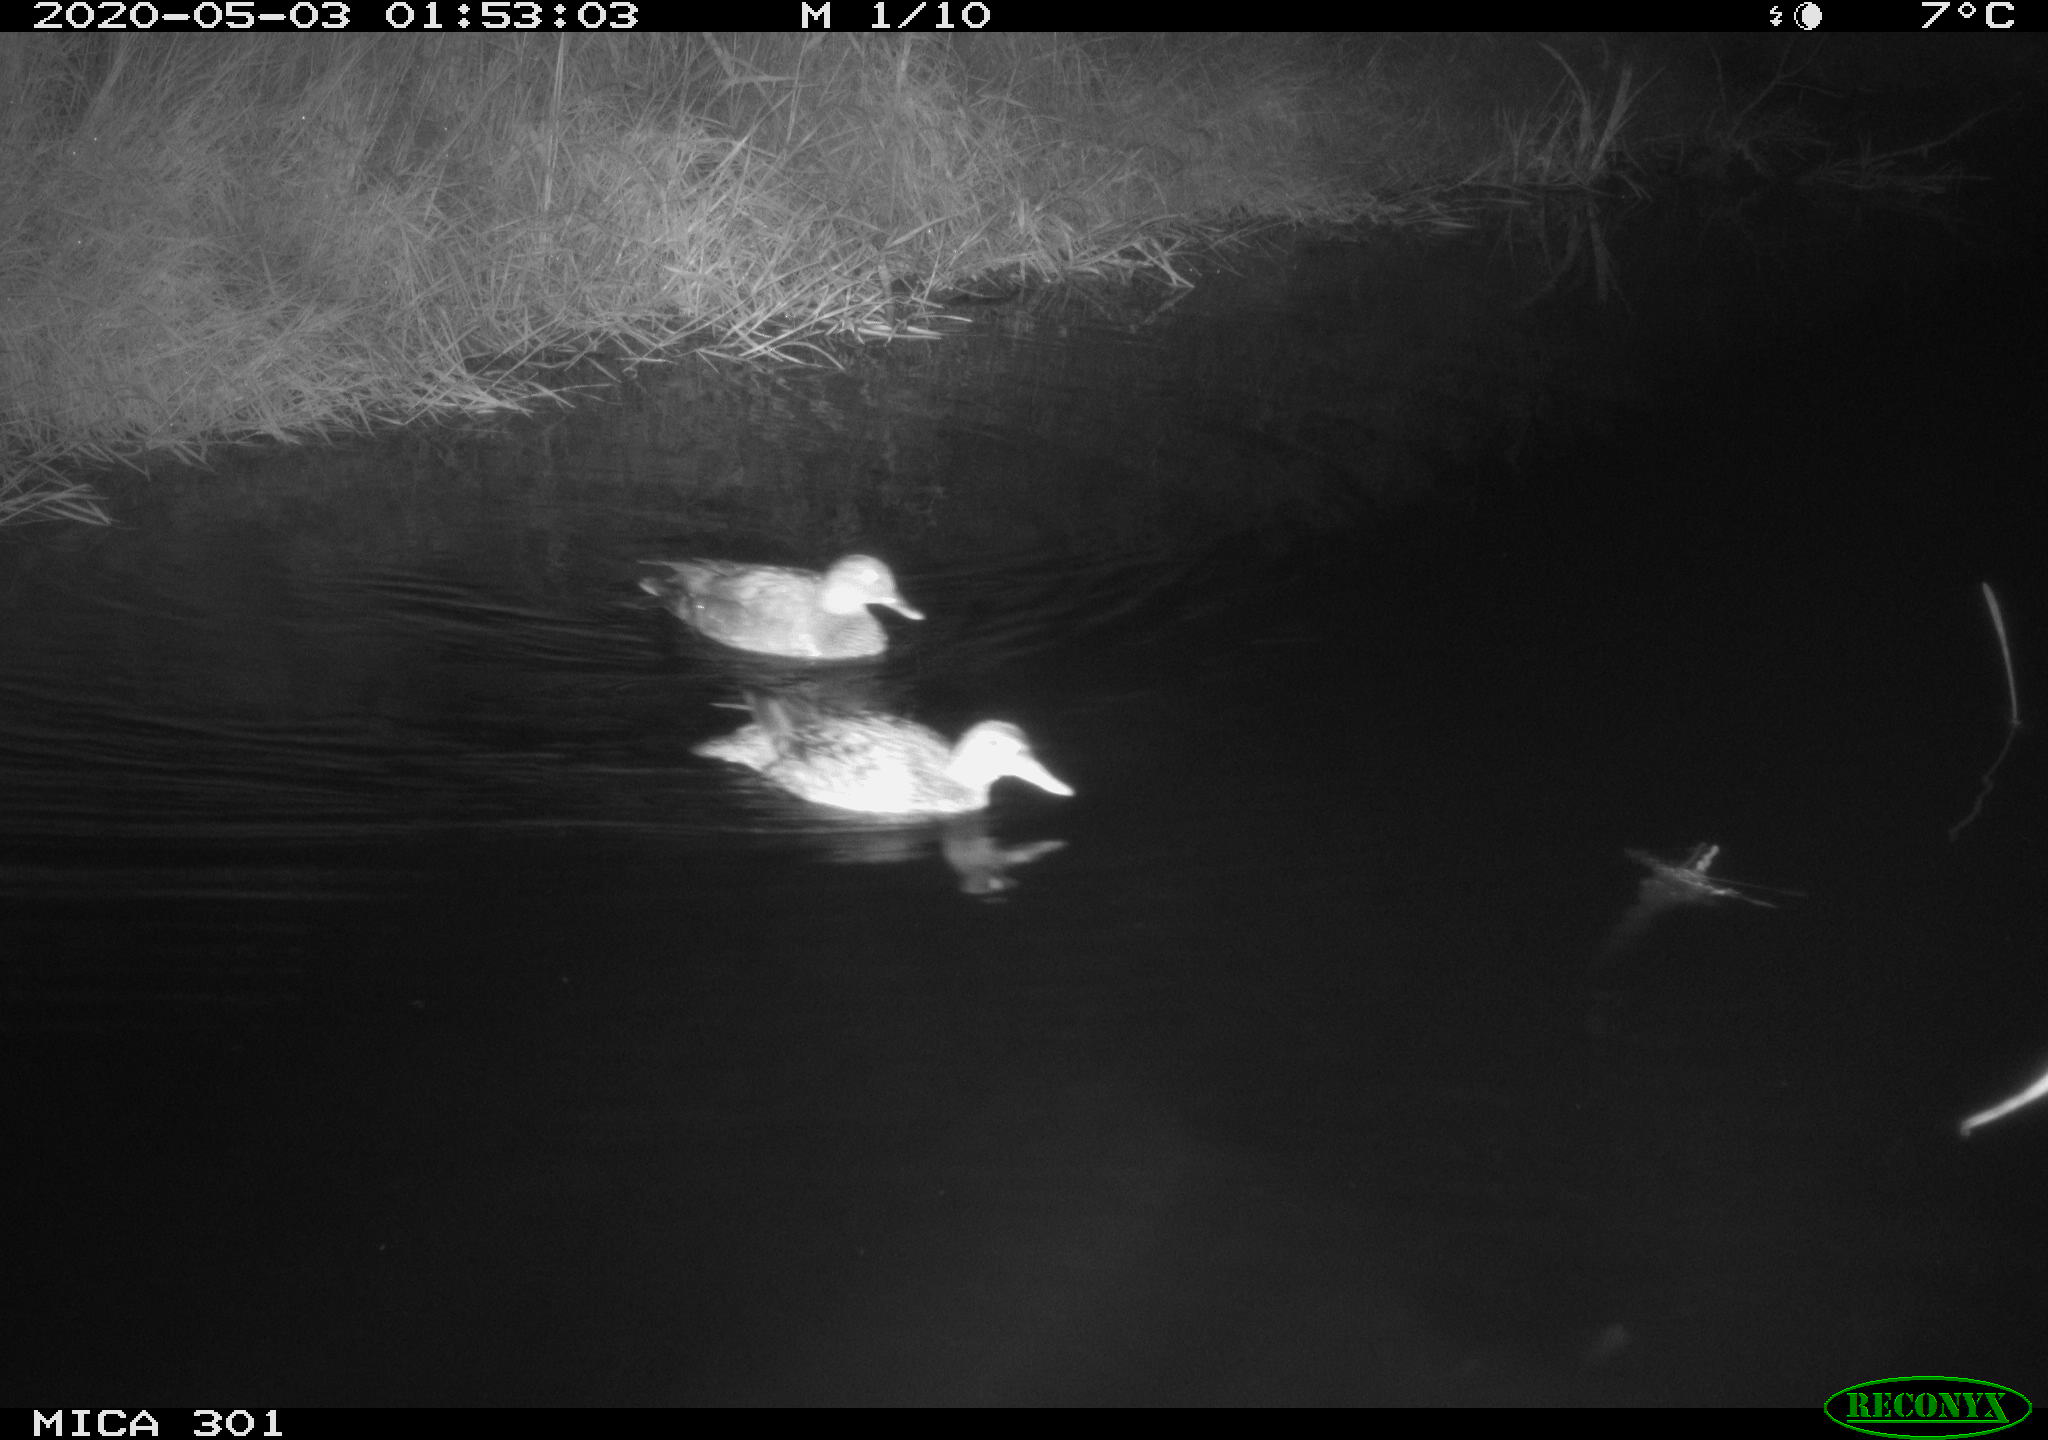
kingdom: Animalia
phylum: Chordata
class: Aves
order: Anseriformes
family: Anatidae
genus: Mareca
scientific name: Mareca strepera
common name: Gadwall
